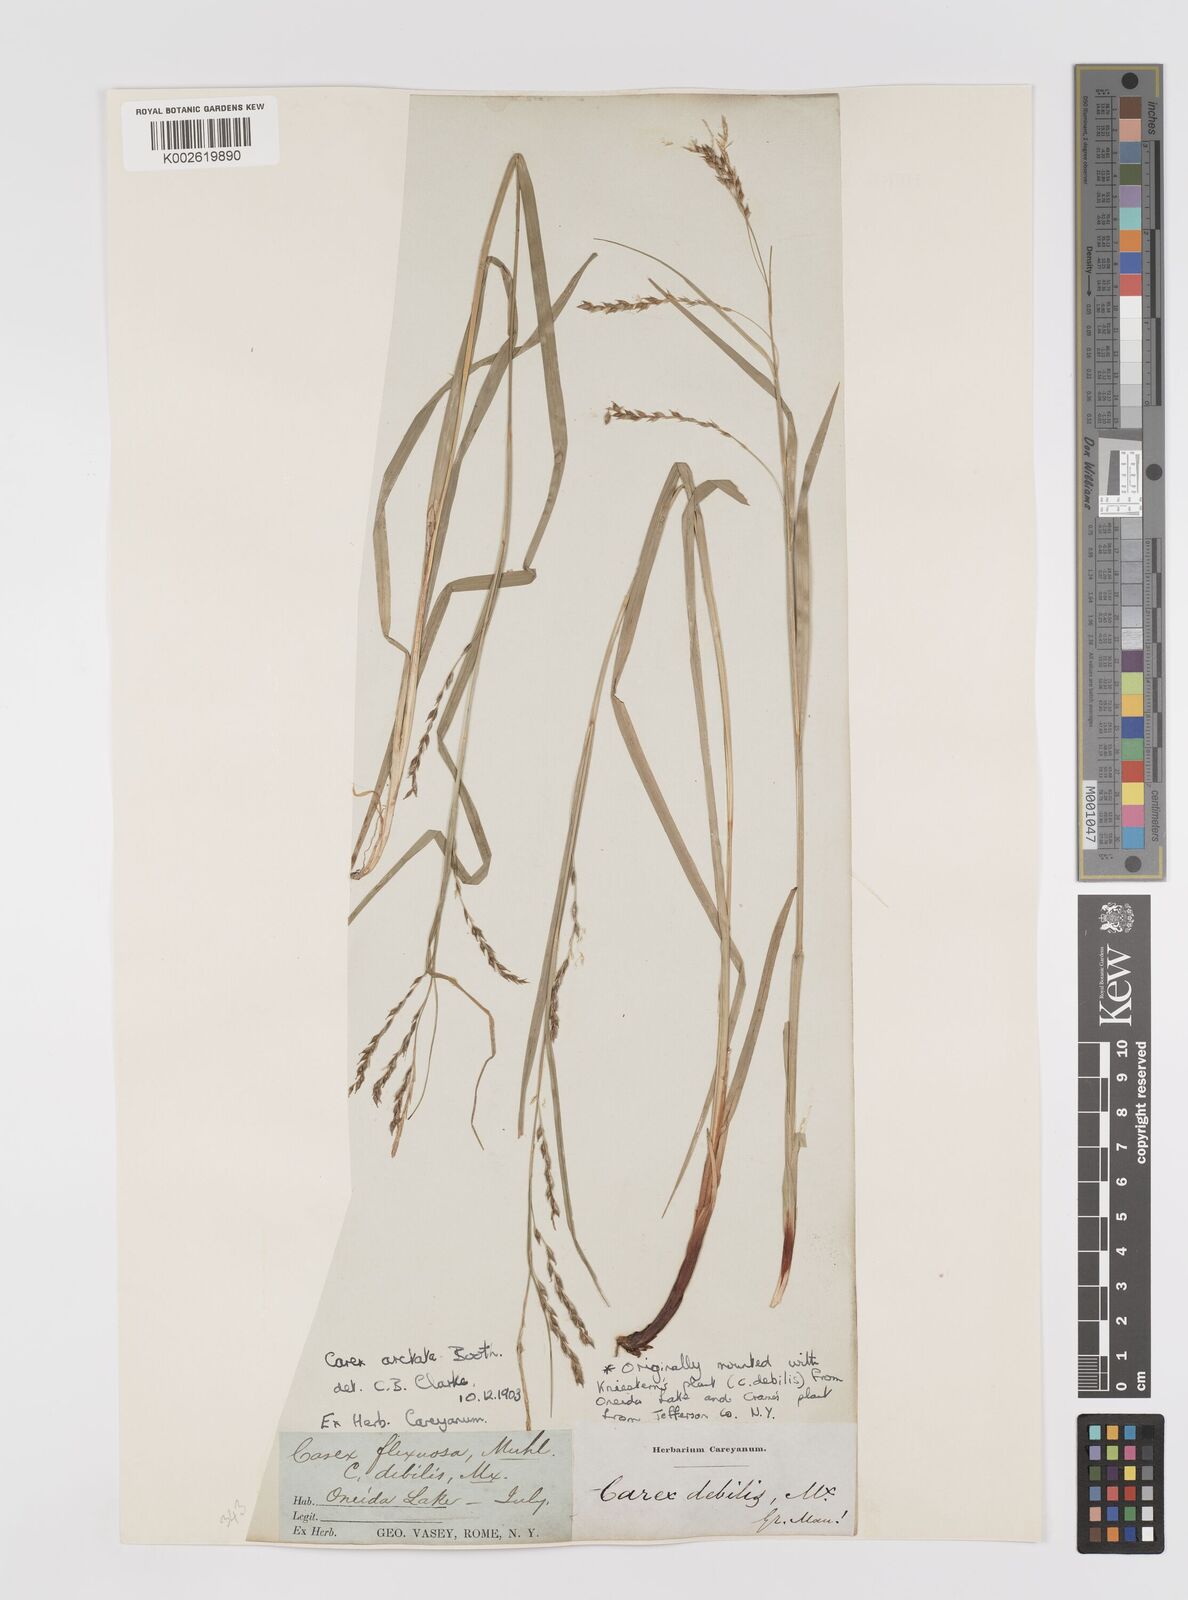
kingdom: Plantae
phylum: Tracheophyta
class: Liliopsida
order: Poales
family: Cyperaceae
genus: Carex
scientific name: Carex arctata
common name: Black sedge
